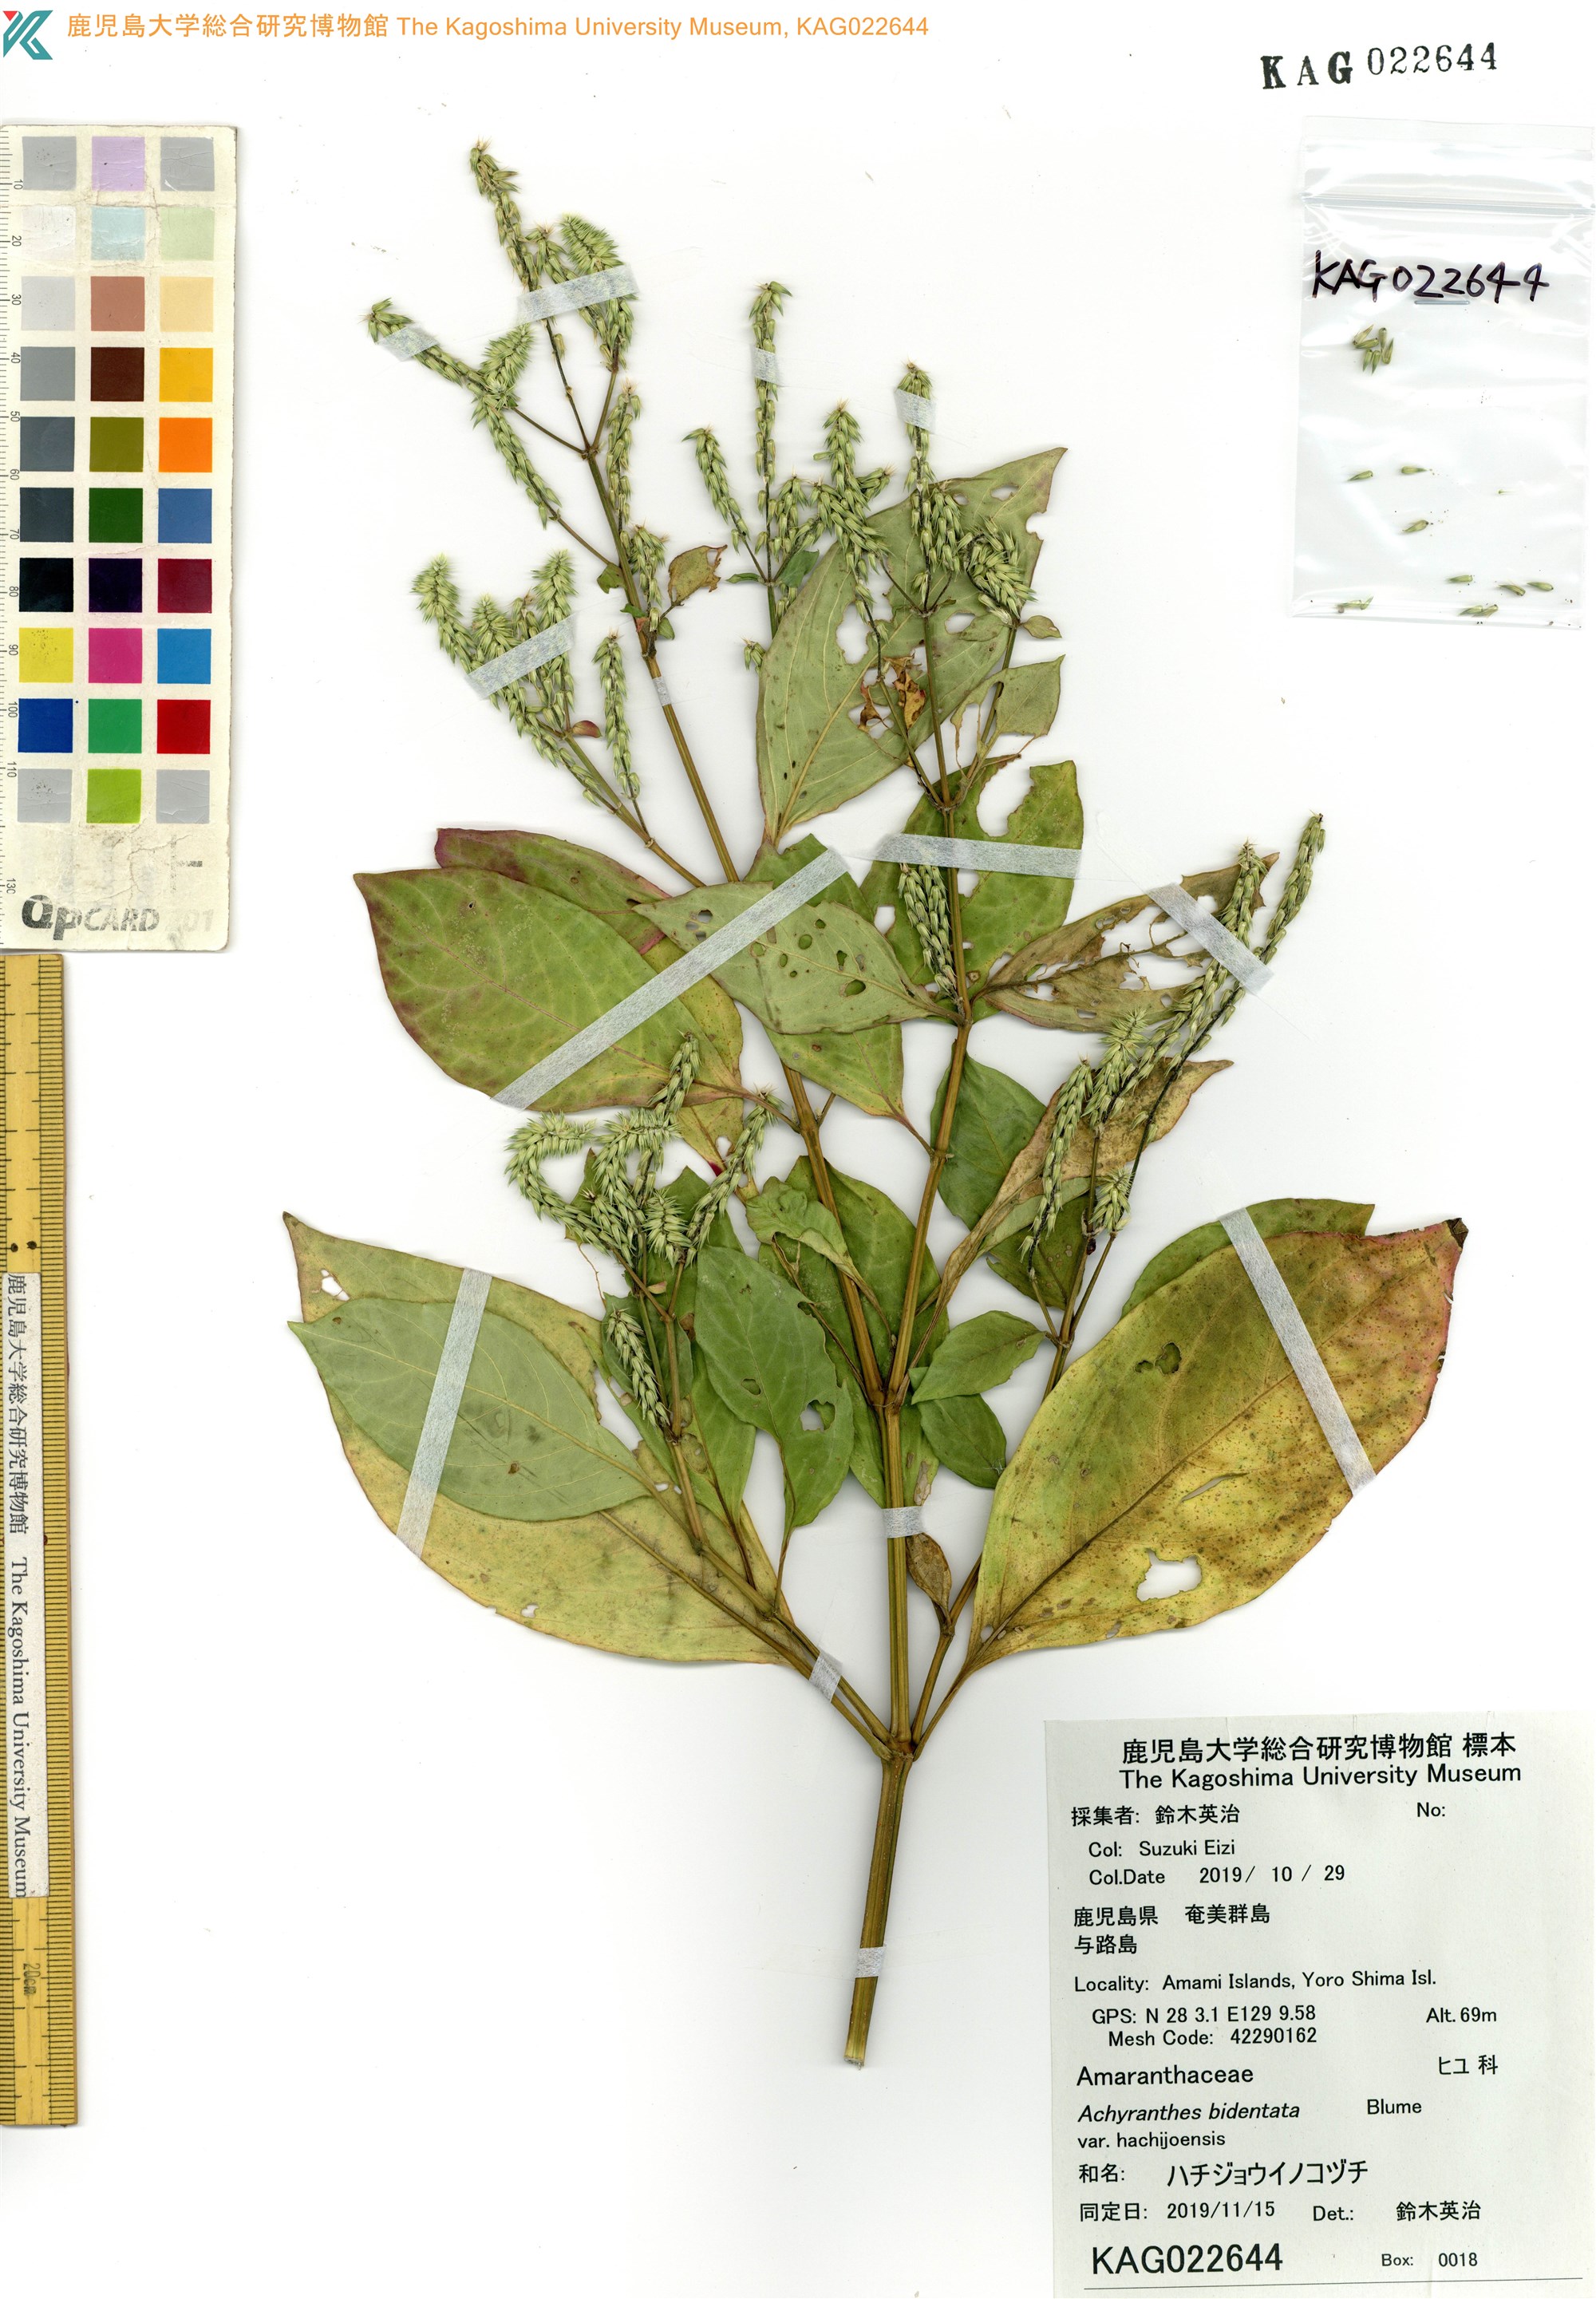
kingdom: Plantae
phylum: Tracheophyta
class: Magnoliopsida
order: Caryophyllales
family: Amaranthaceae
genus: Achyranthes
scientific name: Achyranthes bidentata
